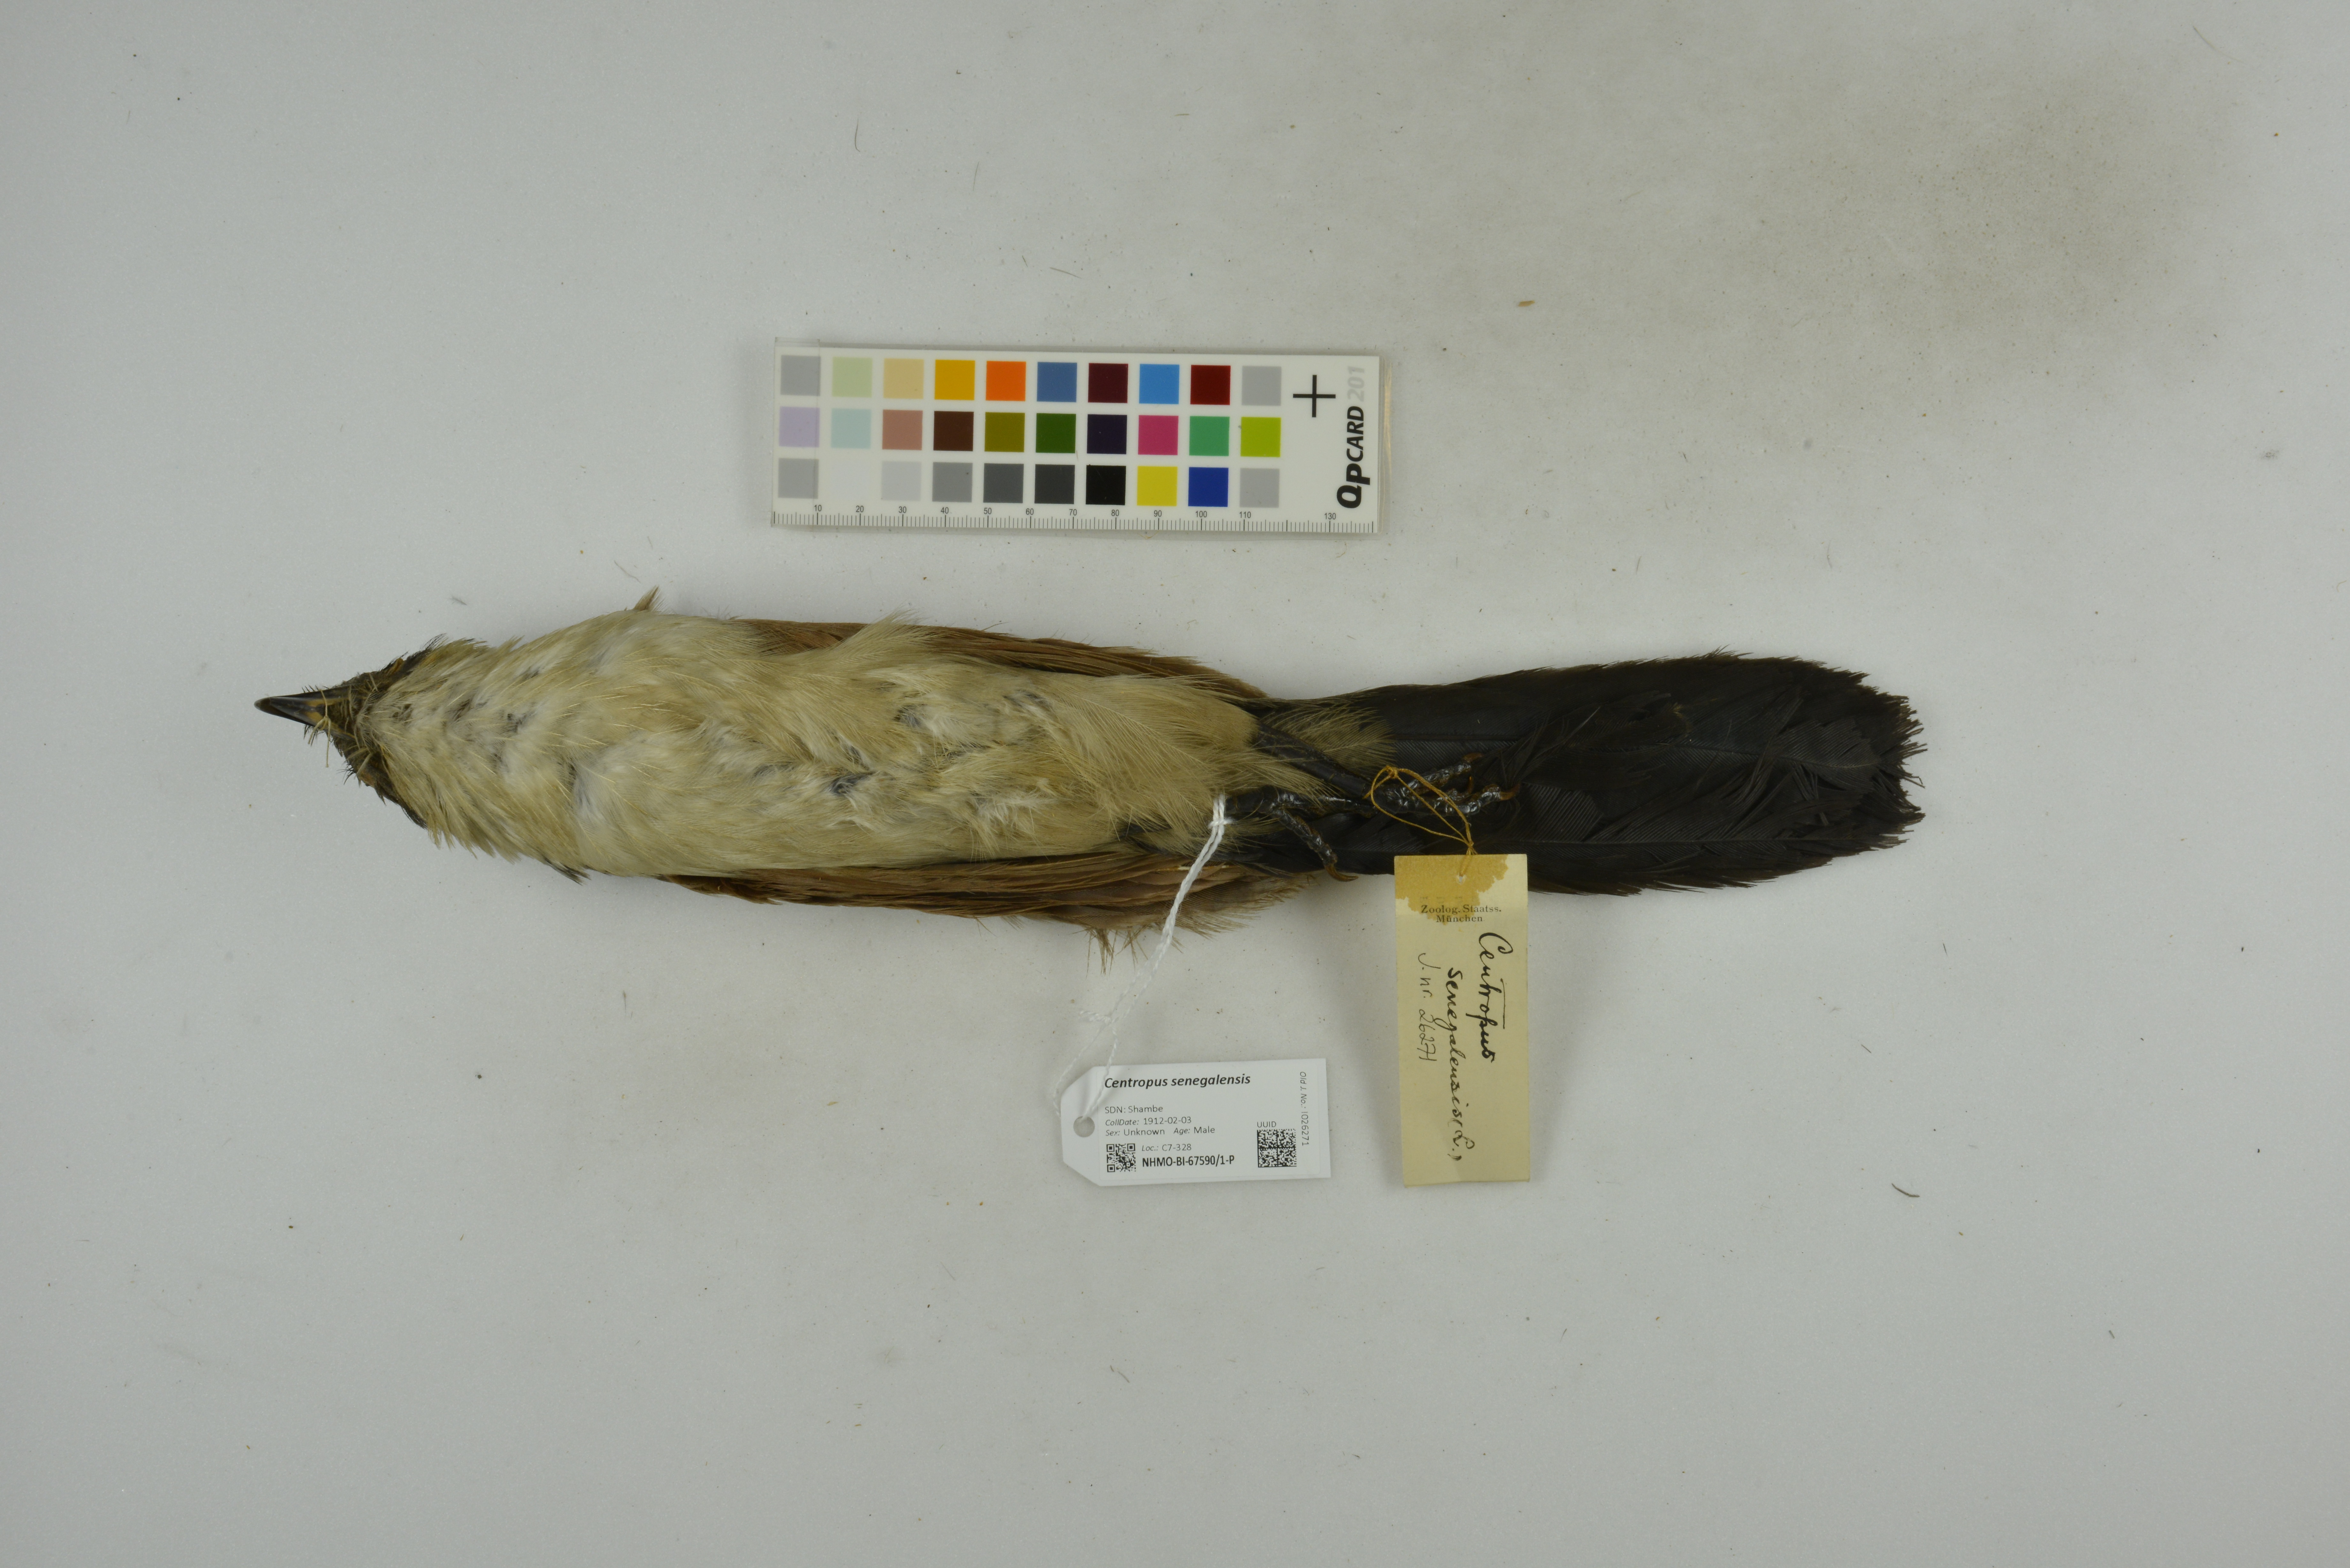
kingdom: Animalia
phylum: Chordata
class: Aves
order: Cuculiformes
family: Cuculidae
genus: Centropus
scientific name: Centropus senegalensis
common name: Senegal coucal
